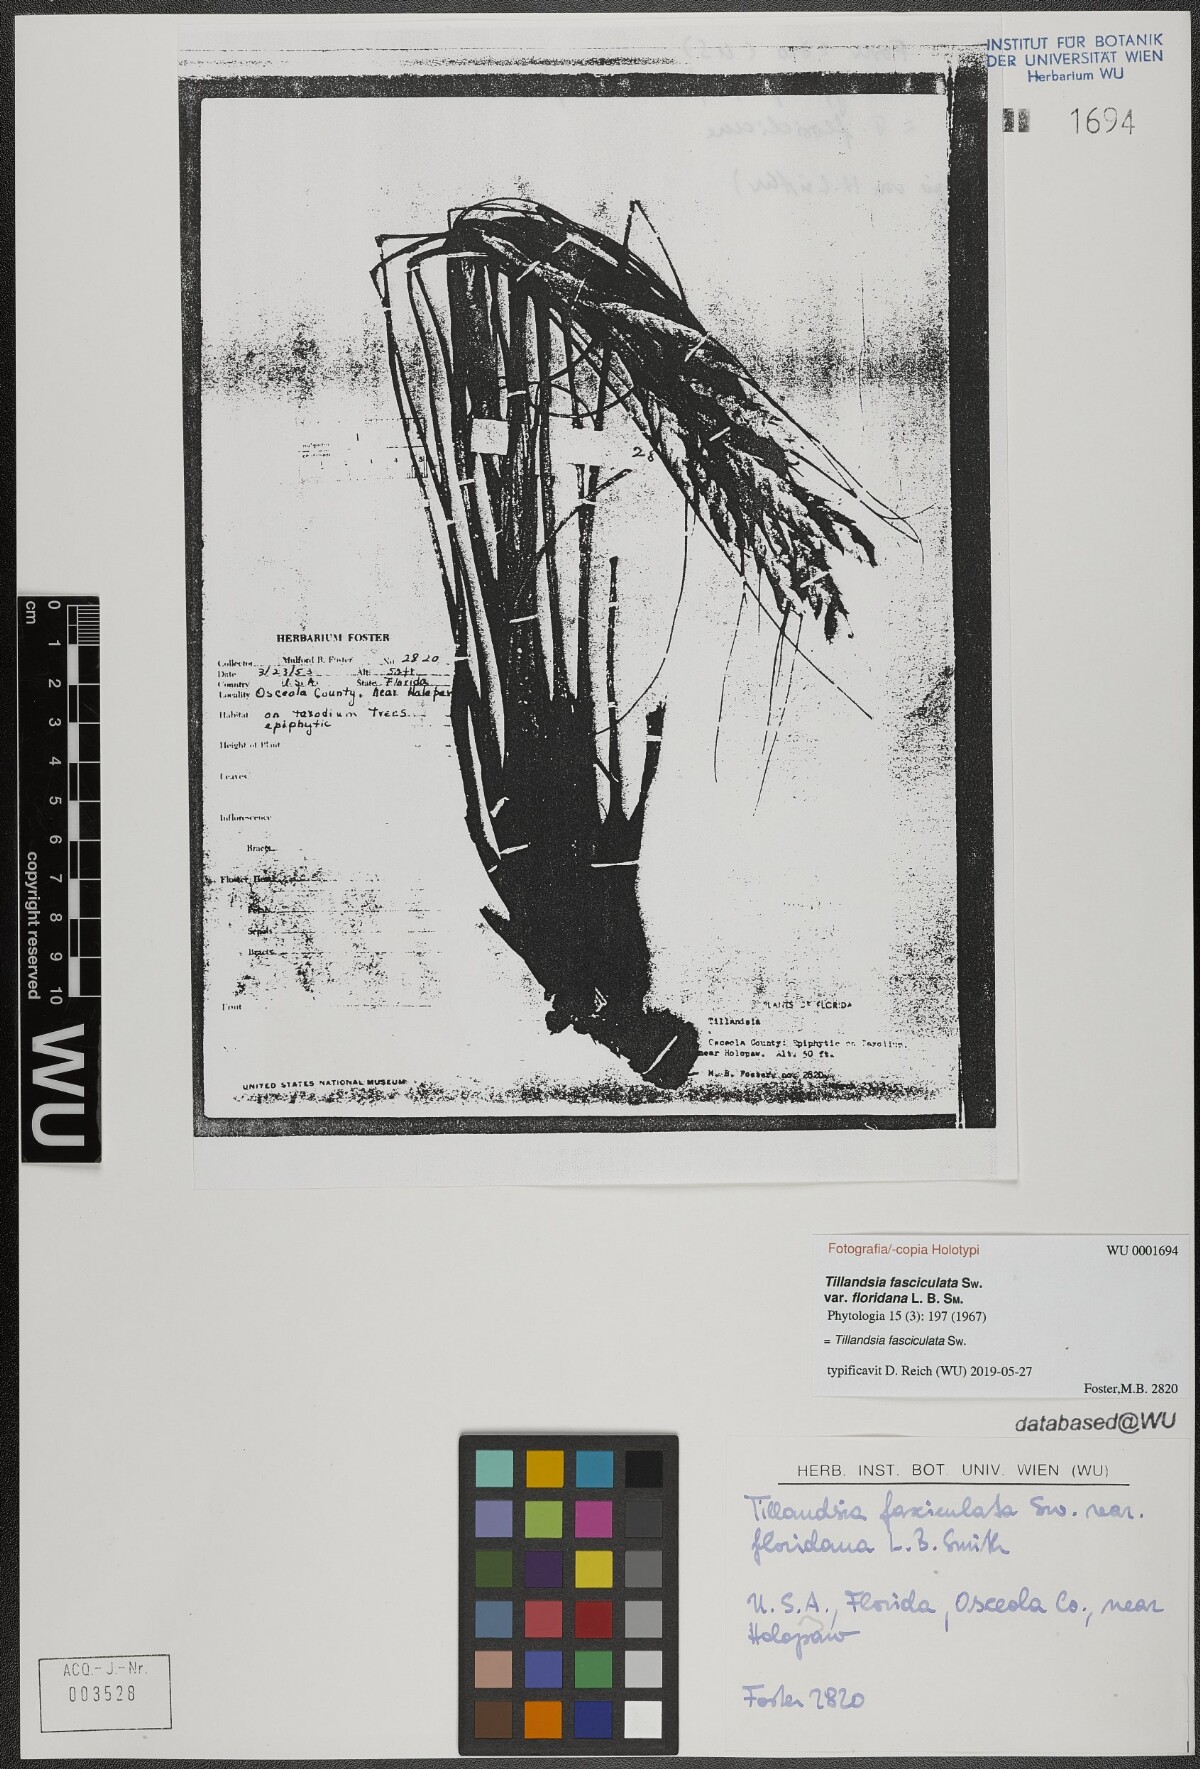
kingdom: Plantae
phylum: Tracheophyta
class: Liliopsida
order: Poales
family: Bromeliaceae
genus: Tillandsia
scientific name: Tillandsia fasciculata
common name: Giant airplant
